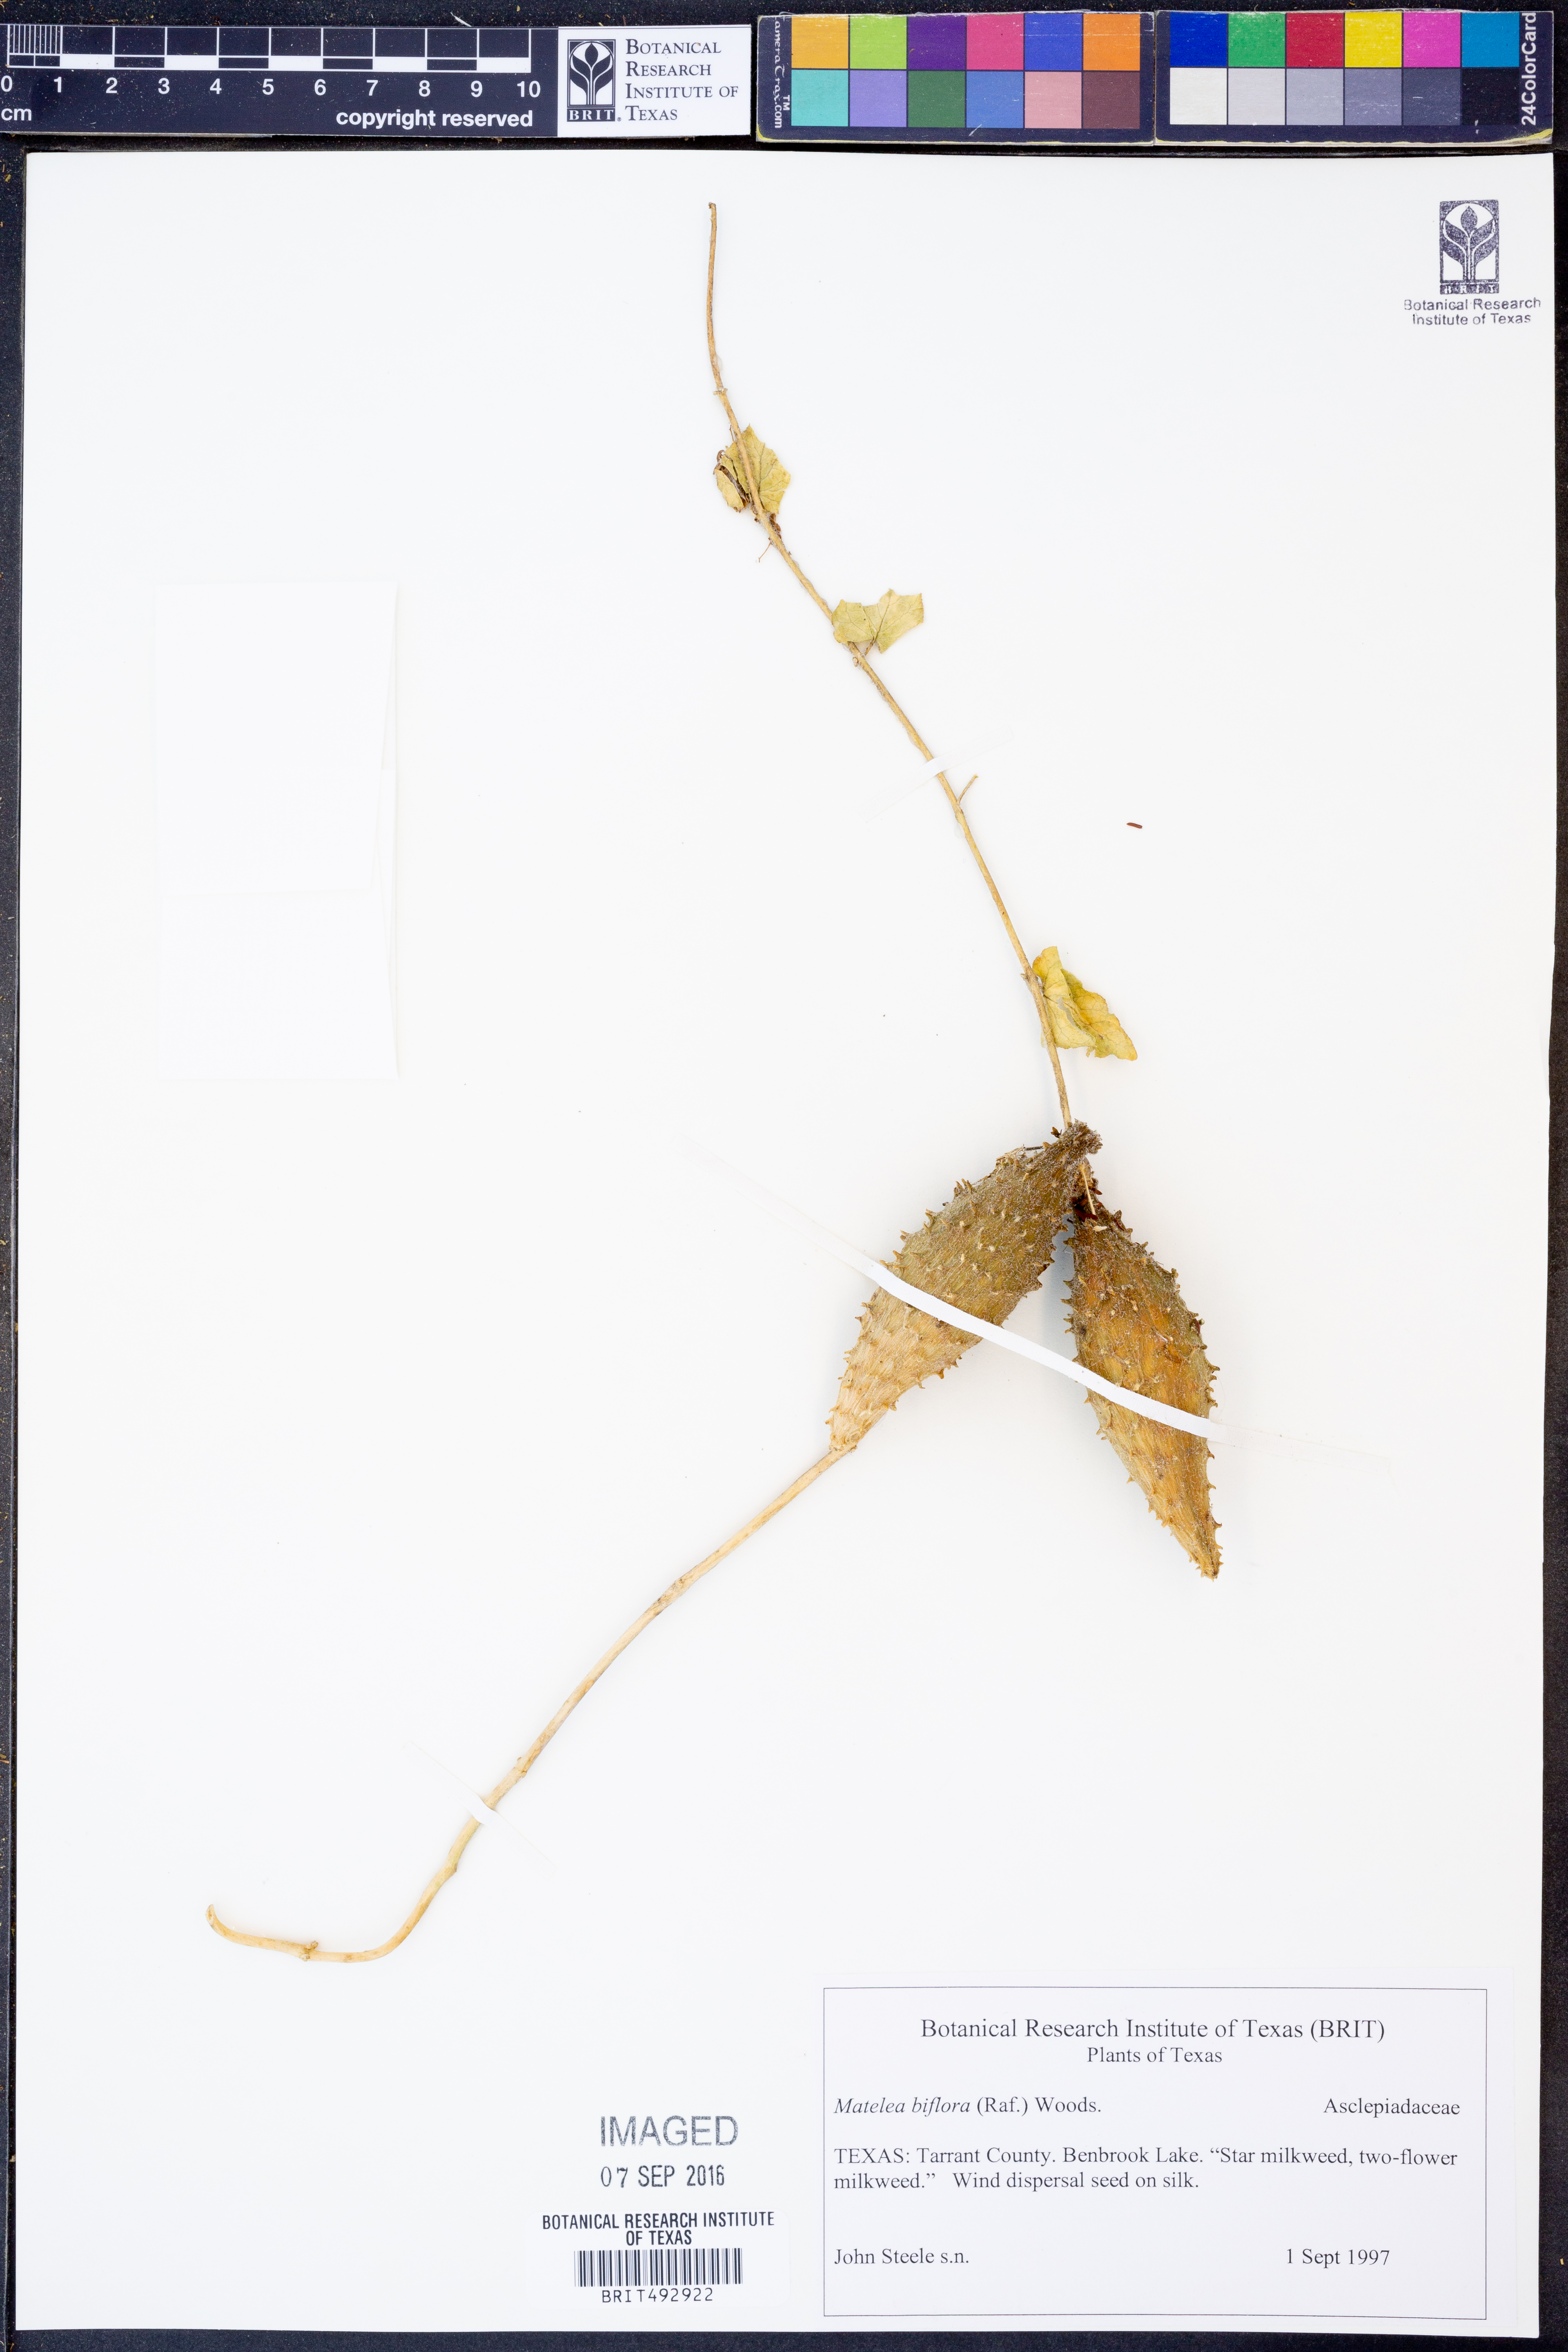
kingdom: Plantae
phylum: Tracheophyta
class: Magnoliopsida
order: Gentianales
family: Apocynaceae
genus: Chthamalia
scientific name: Chthamalia biflora
